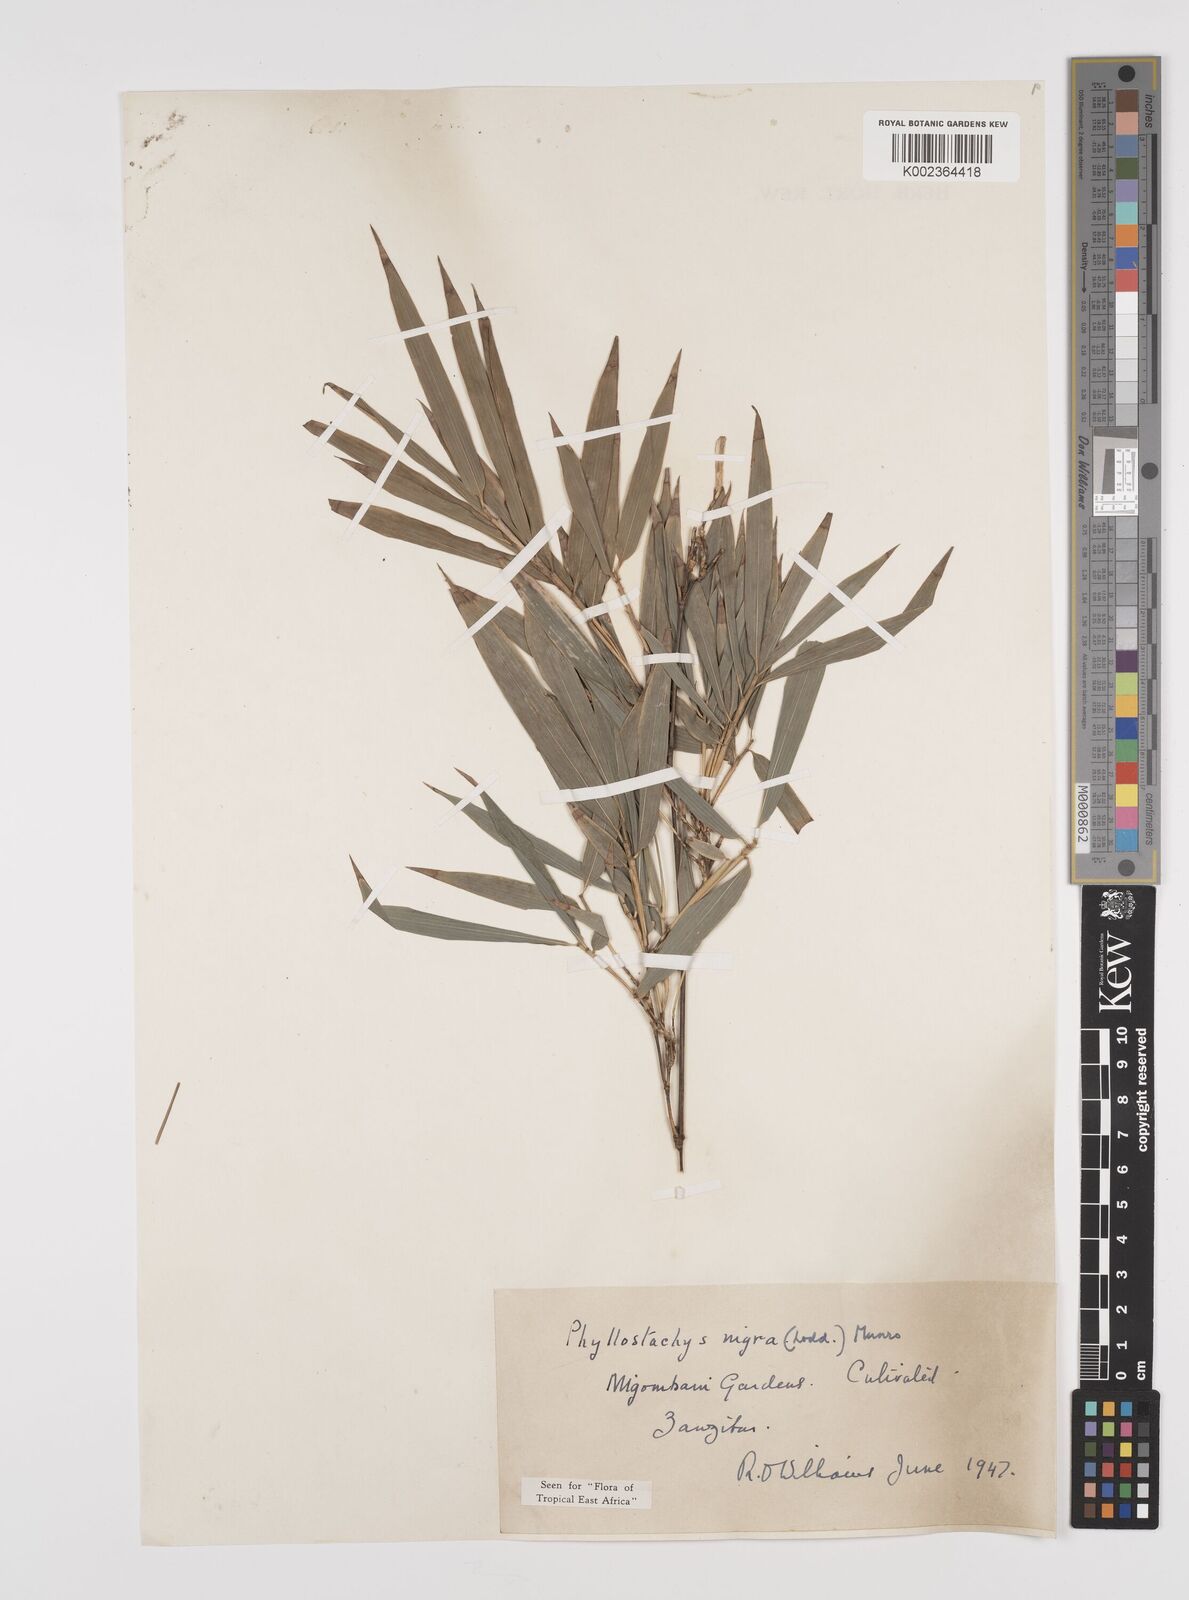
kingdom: Plantae
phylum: Tracheophyta
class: Liliopsida
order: Poales
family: Poaceae
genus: Phyllostachys
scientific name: Phyllostachys nigra
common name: Black bamboo
